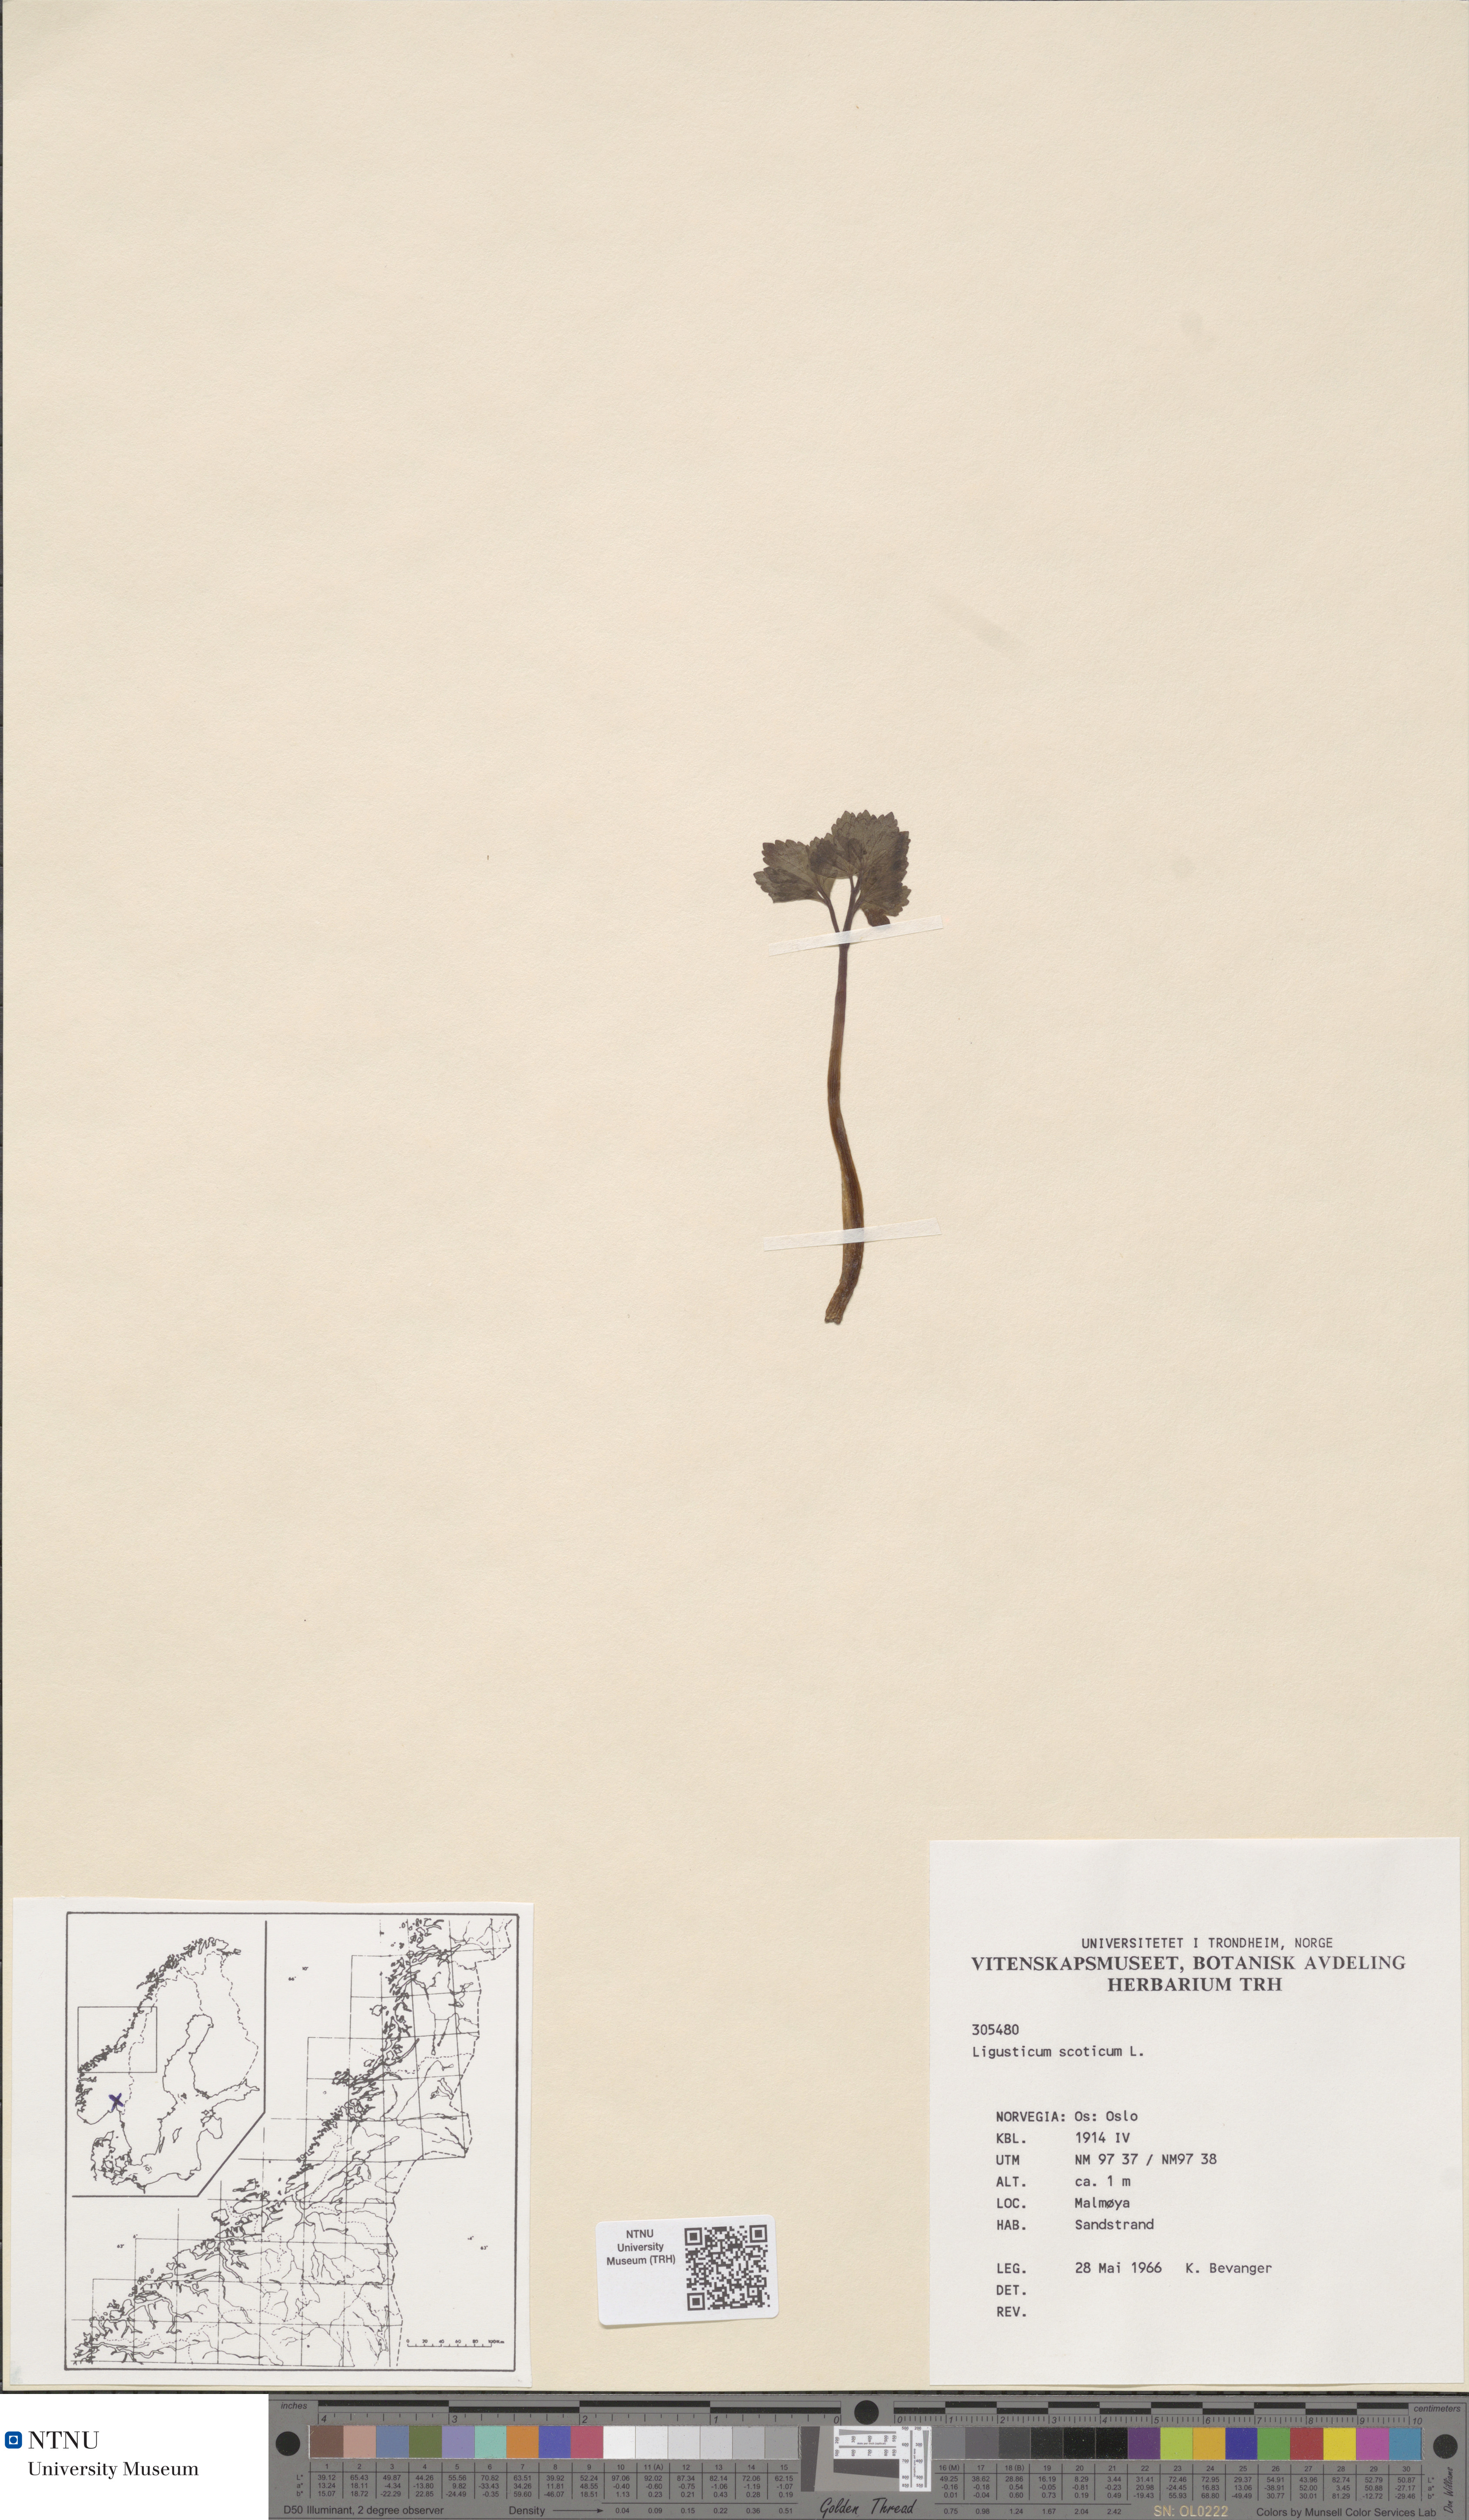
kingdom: Plantae
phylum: Tracheophyta
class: Magnoliopsida
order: Apiales
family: Apiaceae
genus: Ligusticum
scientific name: Ligusticum scothicum
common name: Beach lovage
